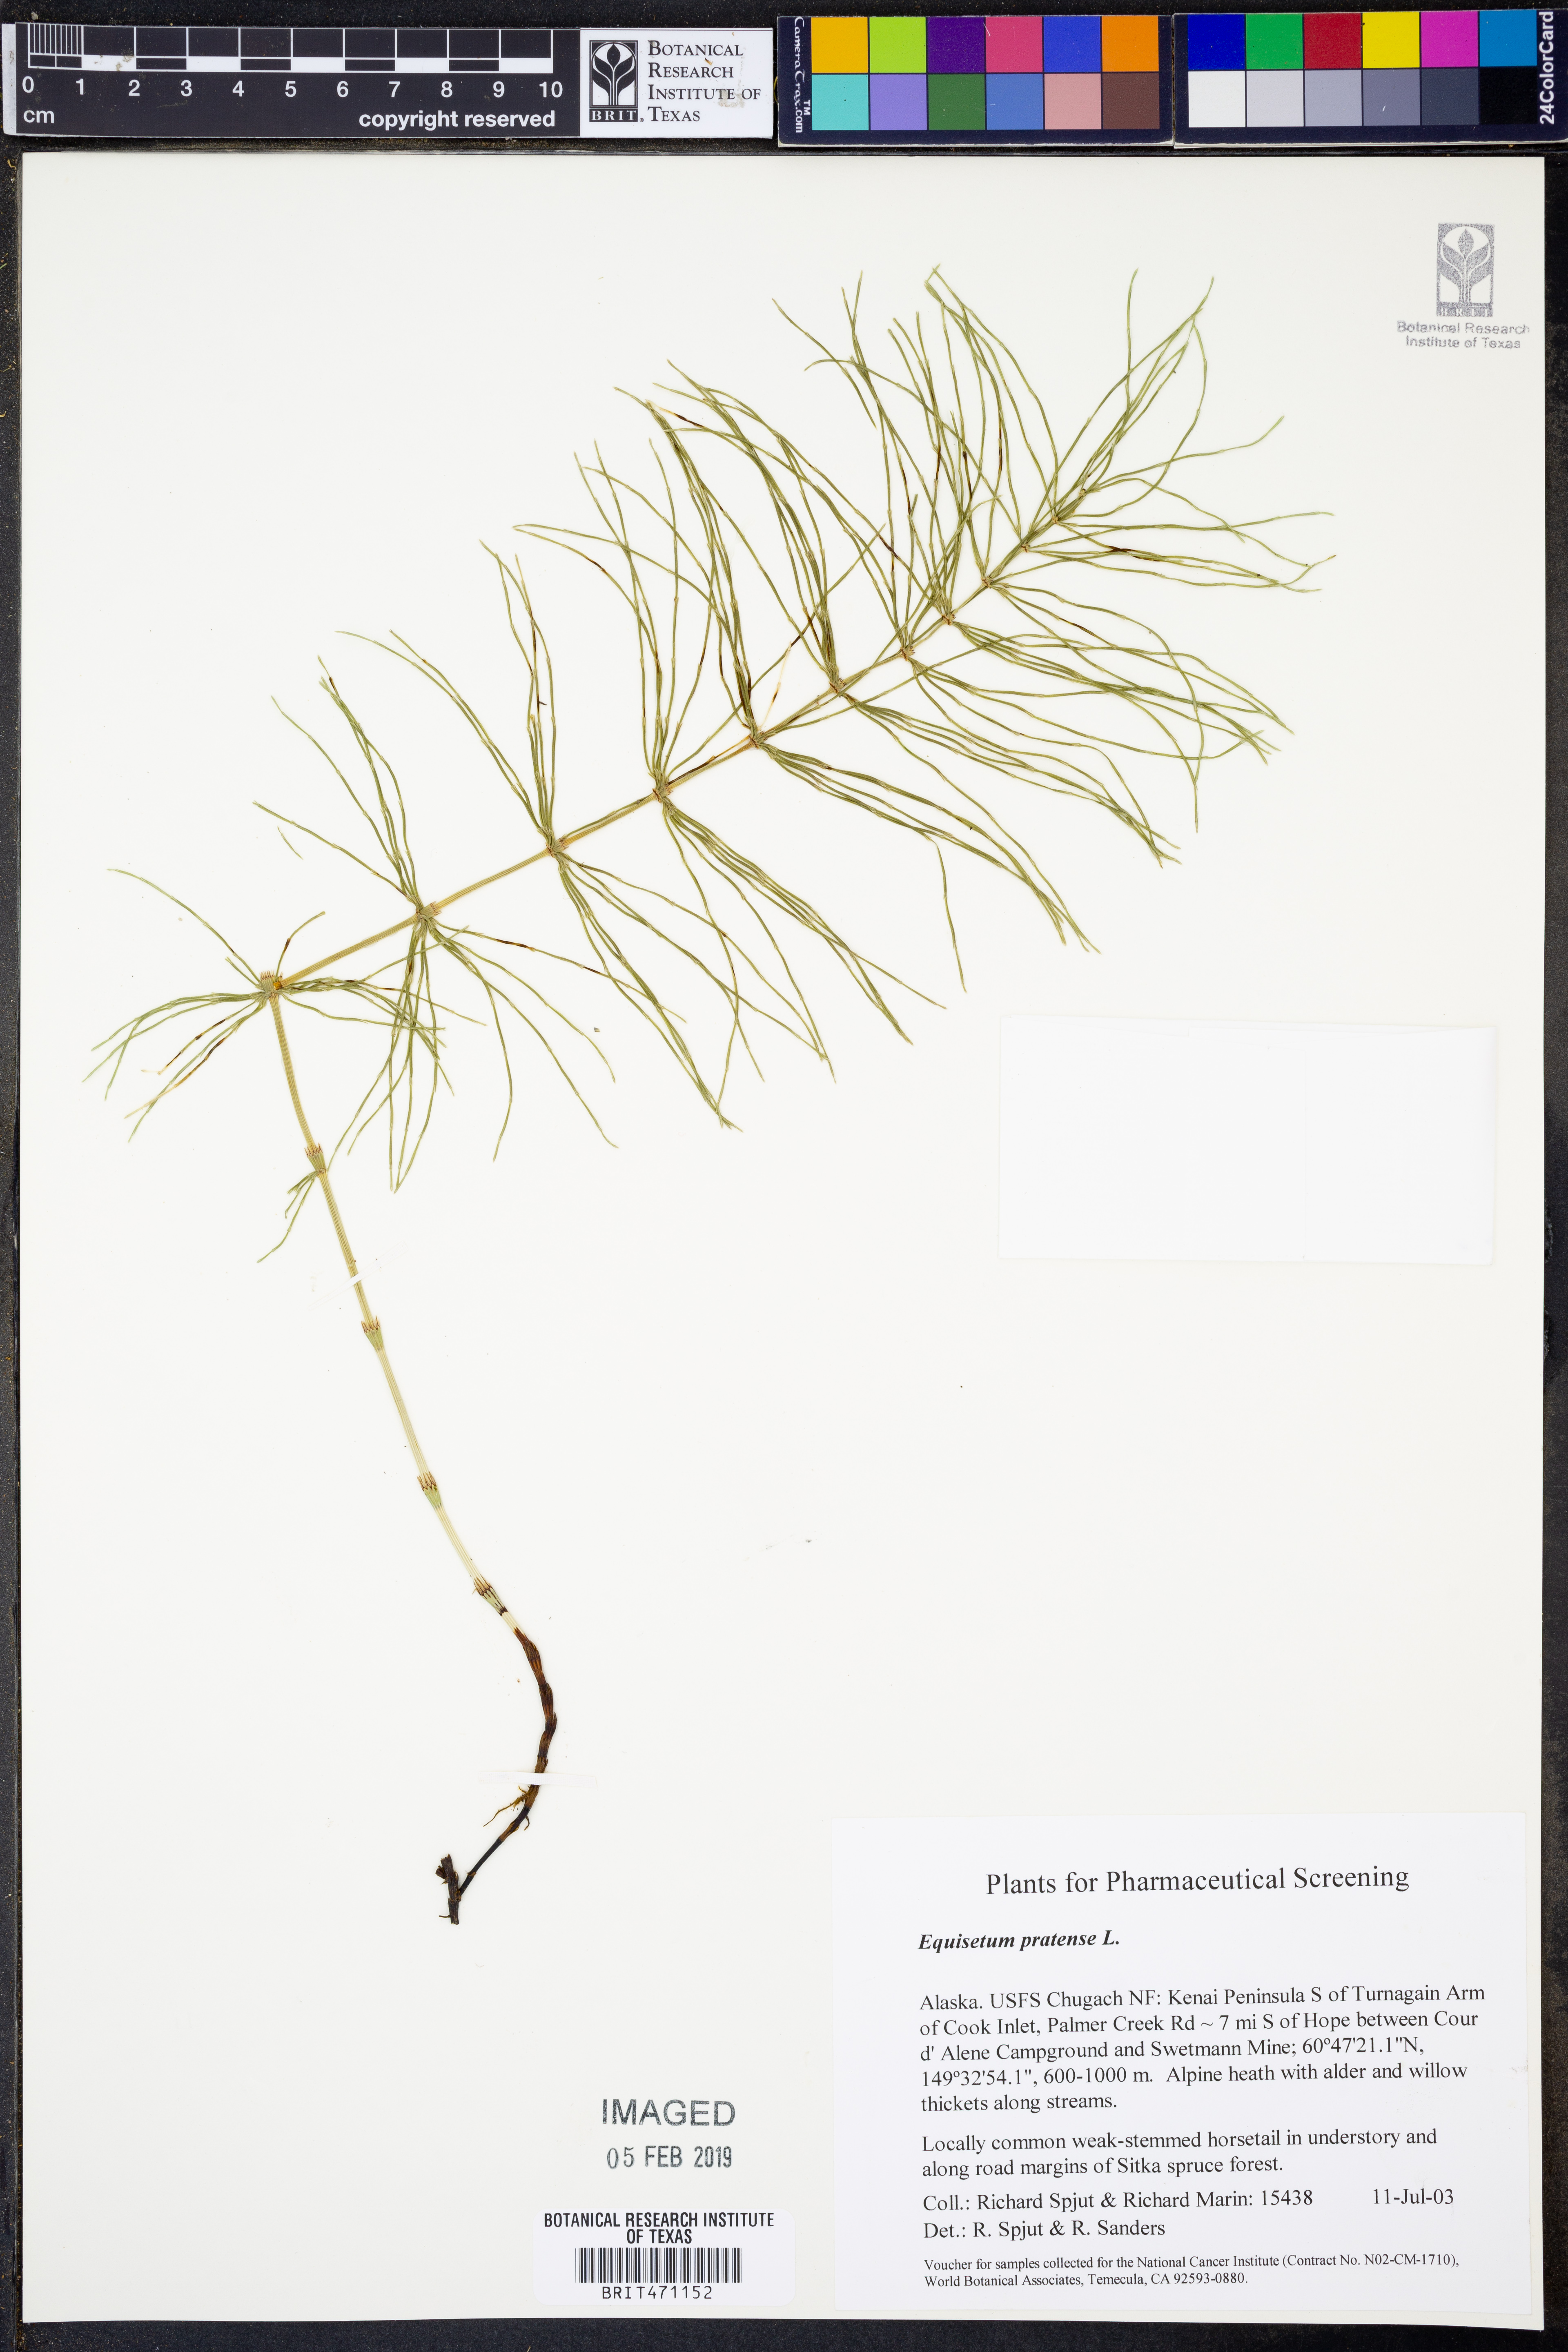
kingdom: Plantae
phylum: Tracheophyta
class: Polypodiopsida
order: Equisetales
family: Equisetaceae
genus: Equisetum
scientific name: Equisetum pratense
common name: Meadow horsetail
